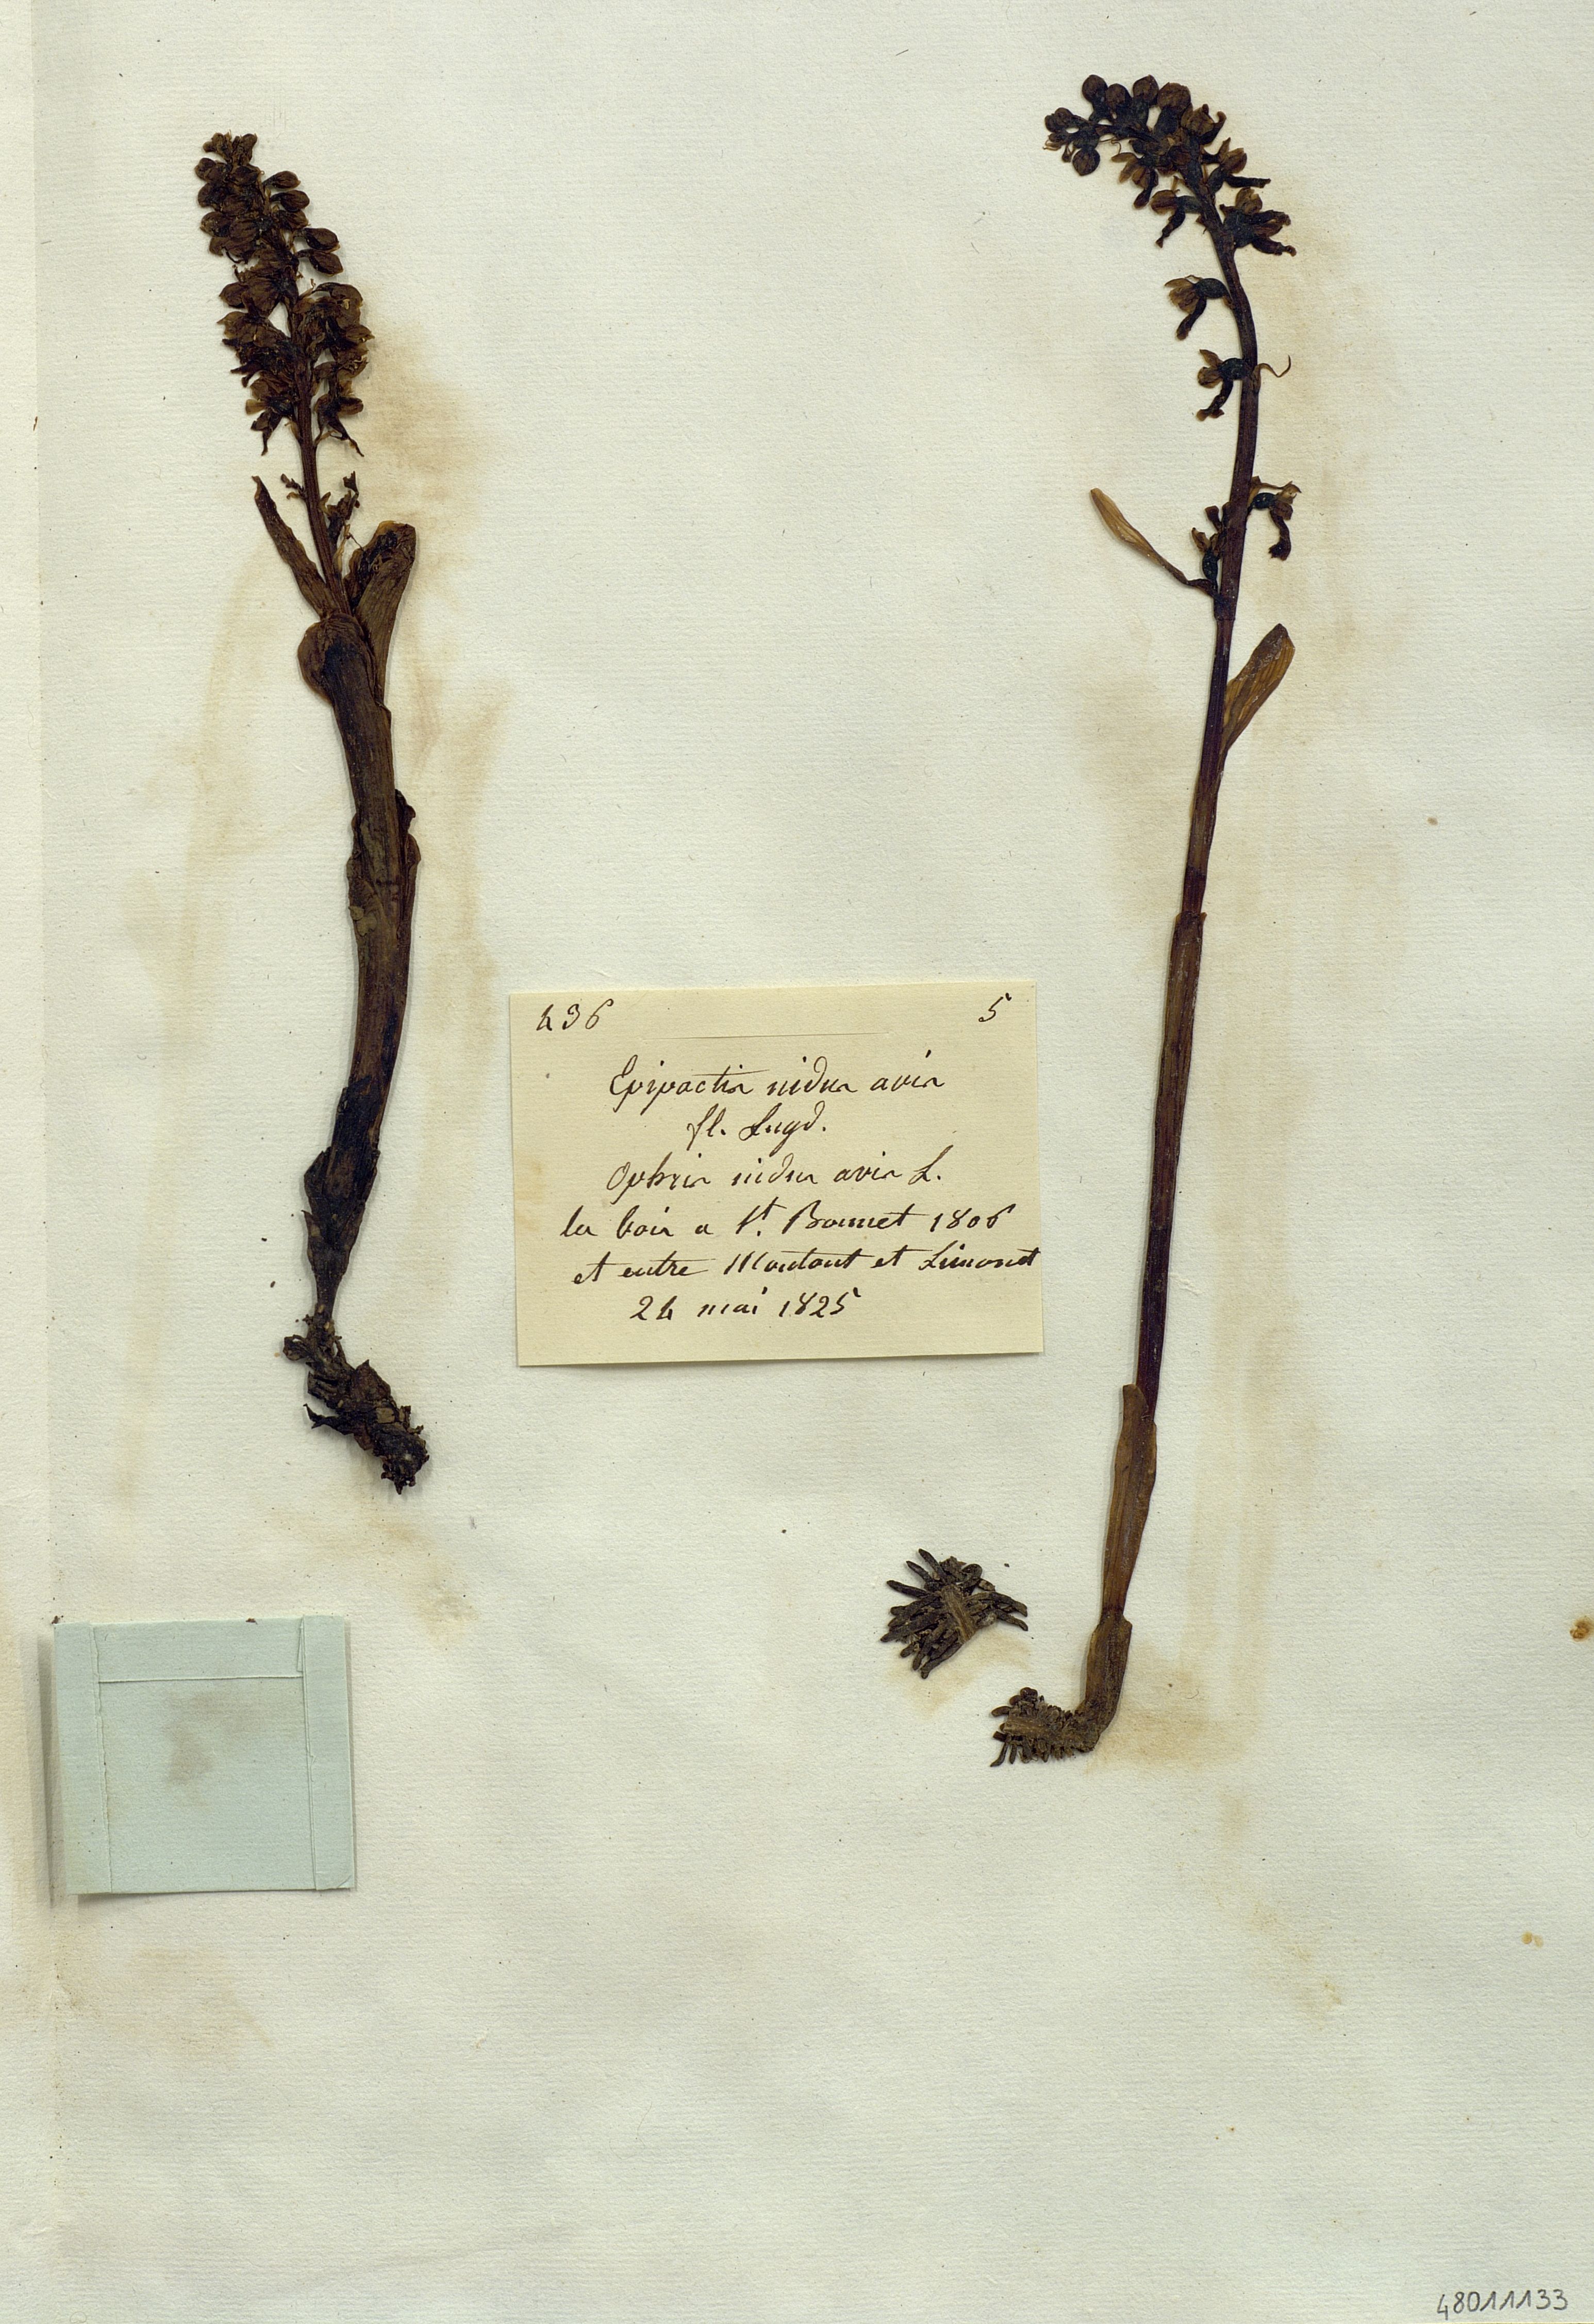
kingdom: Plantae
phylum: Tracheophyta
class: Liliopsida
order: Asparagales
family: Orchidaceae
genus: Neottia
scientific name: Neottia nidus-avis
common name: Bird's-nest orchid
